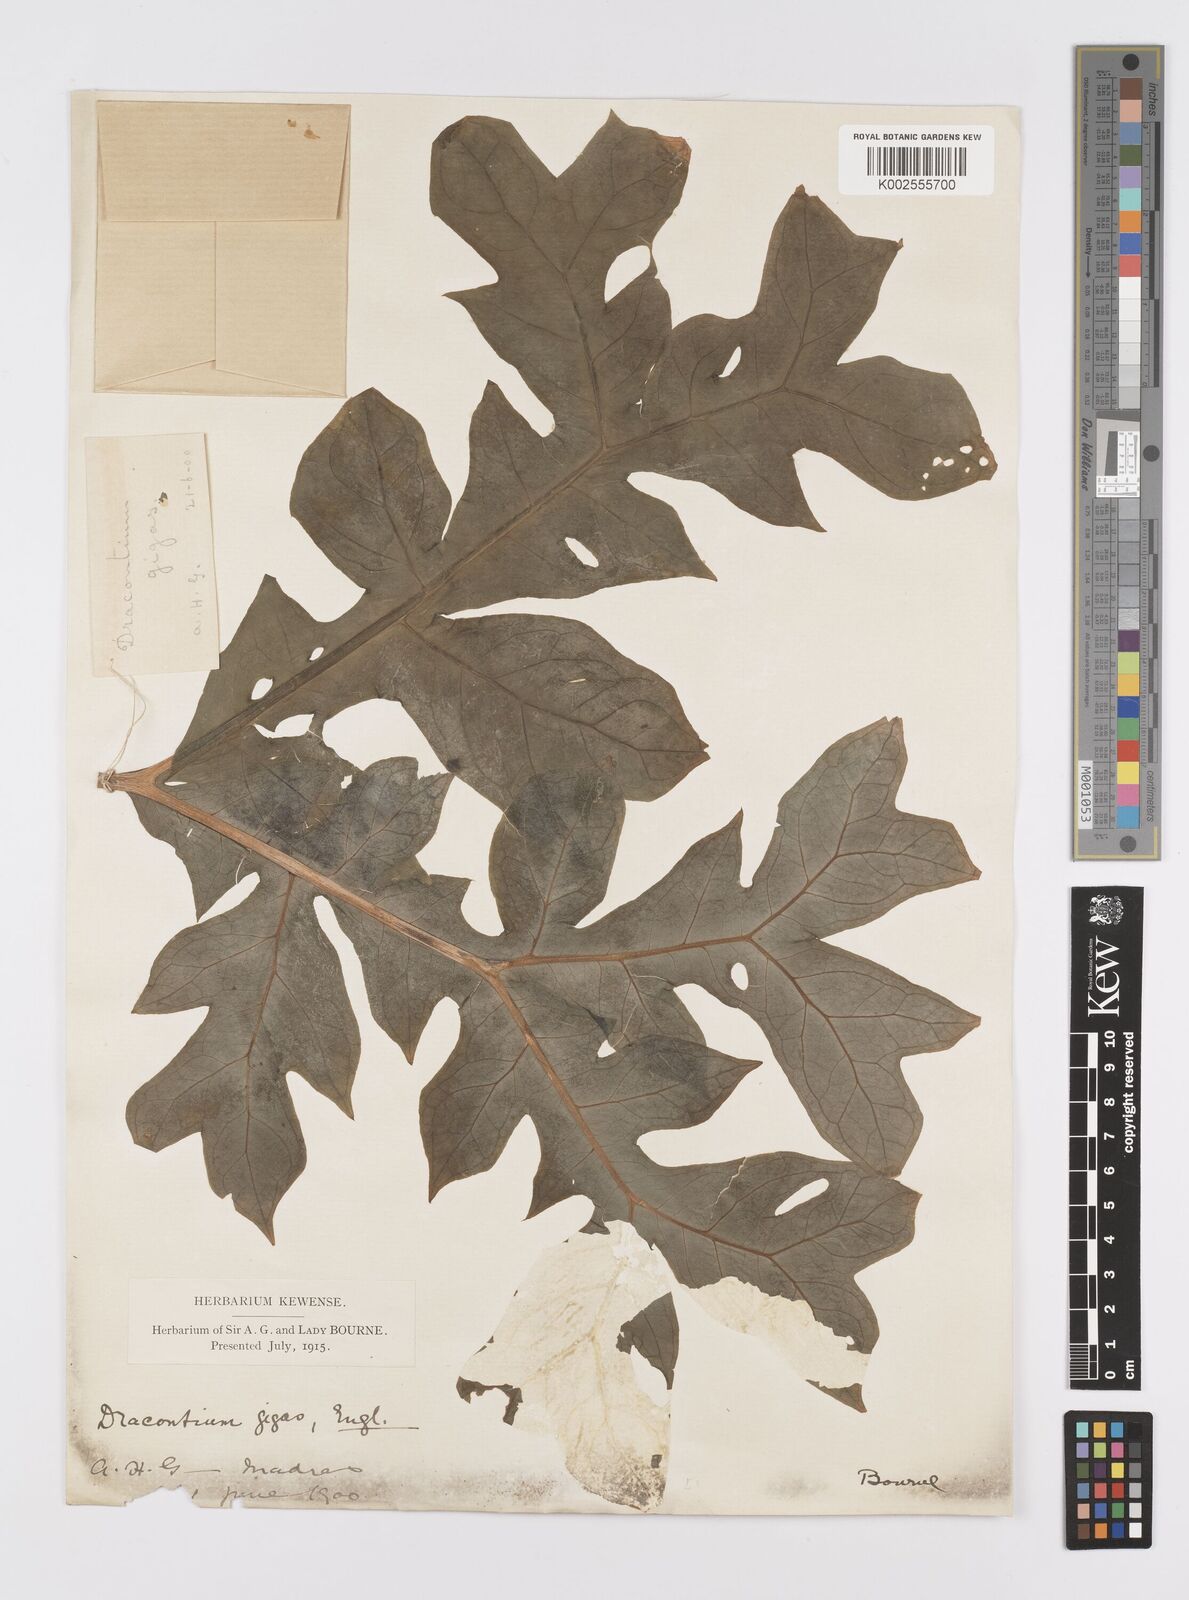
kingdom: Plantae
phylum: Tracheophyta
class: Liliopsida
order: Alismatales
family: Araceae
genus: Dracontium
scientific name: Dracontium gigas
